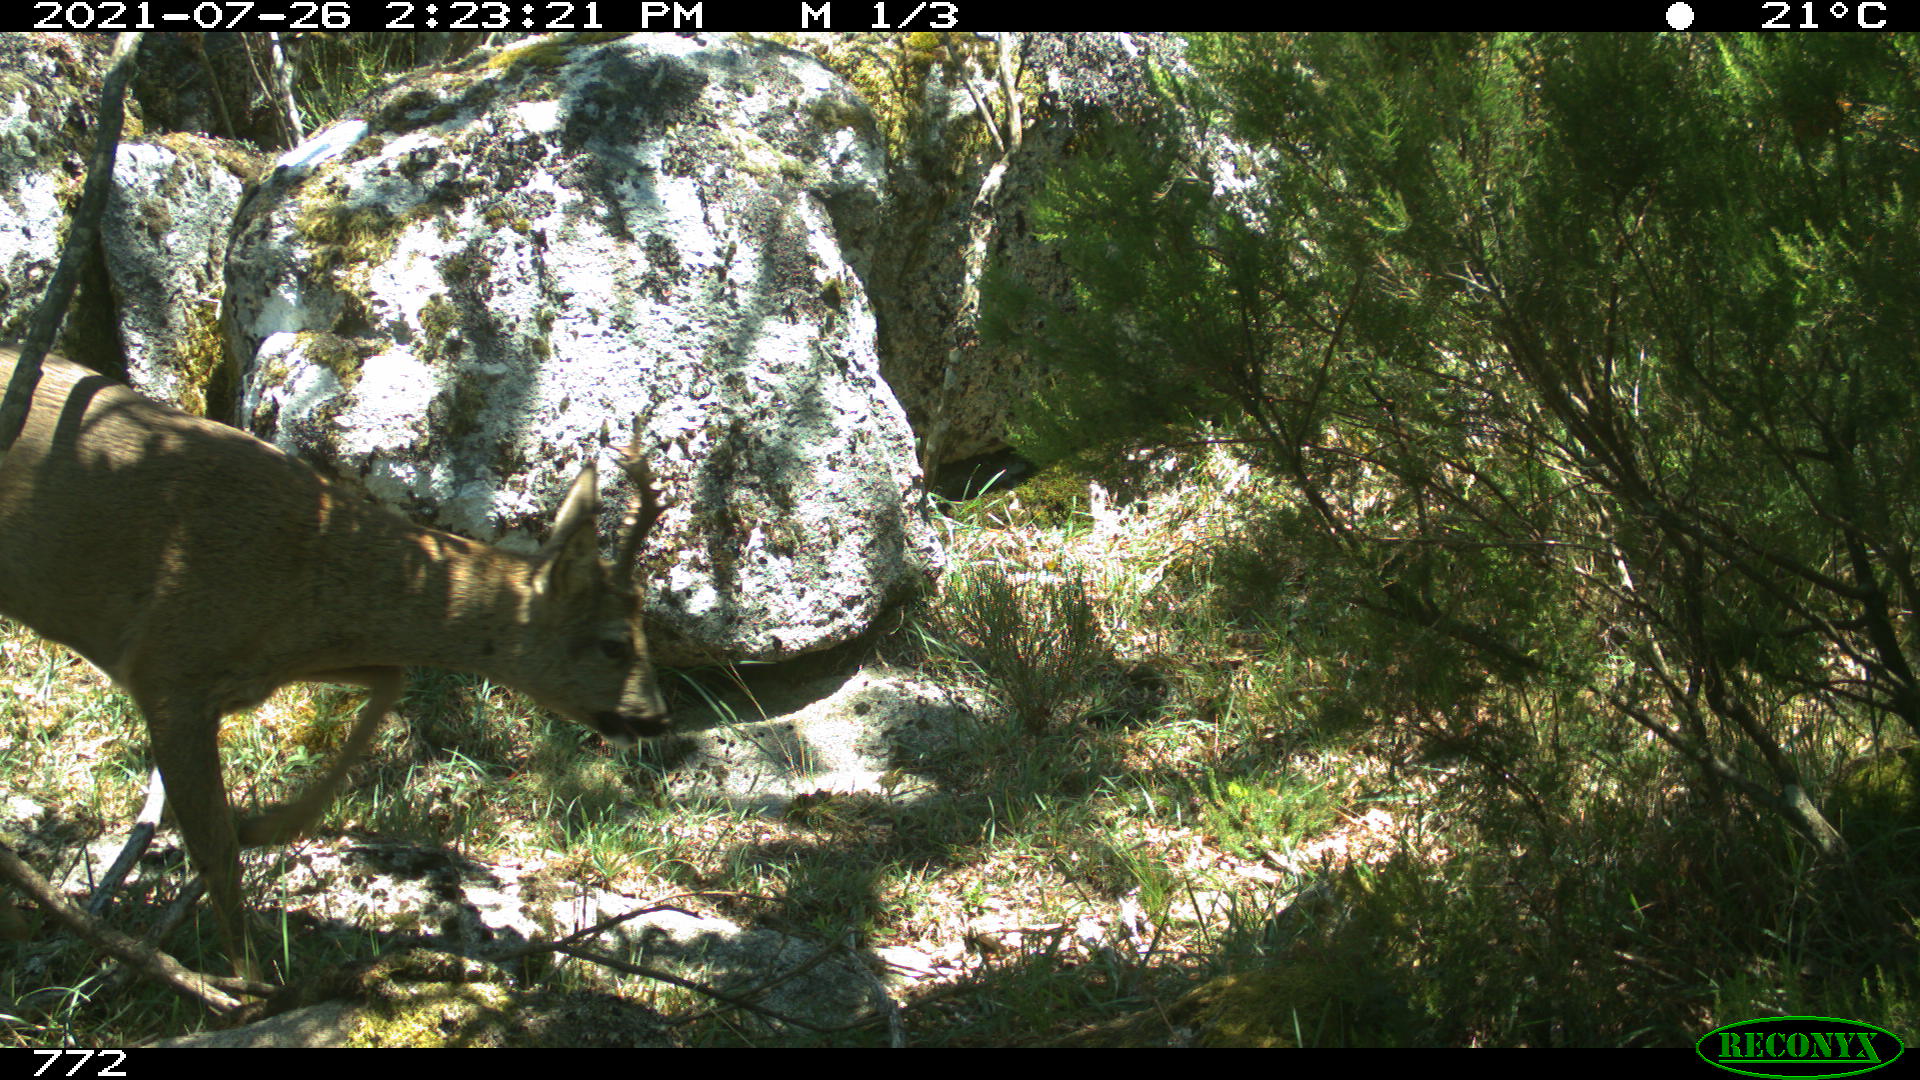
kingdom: Animalia
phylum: Chordata
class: Mammalia
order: Artiodactyla
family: Cervidae
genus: Capreolus
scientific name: Capreolus capreolus
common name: Western roe deer
